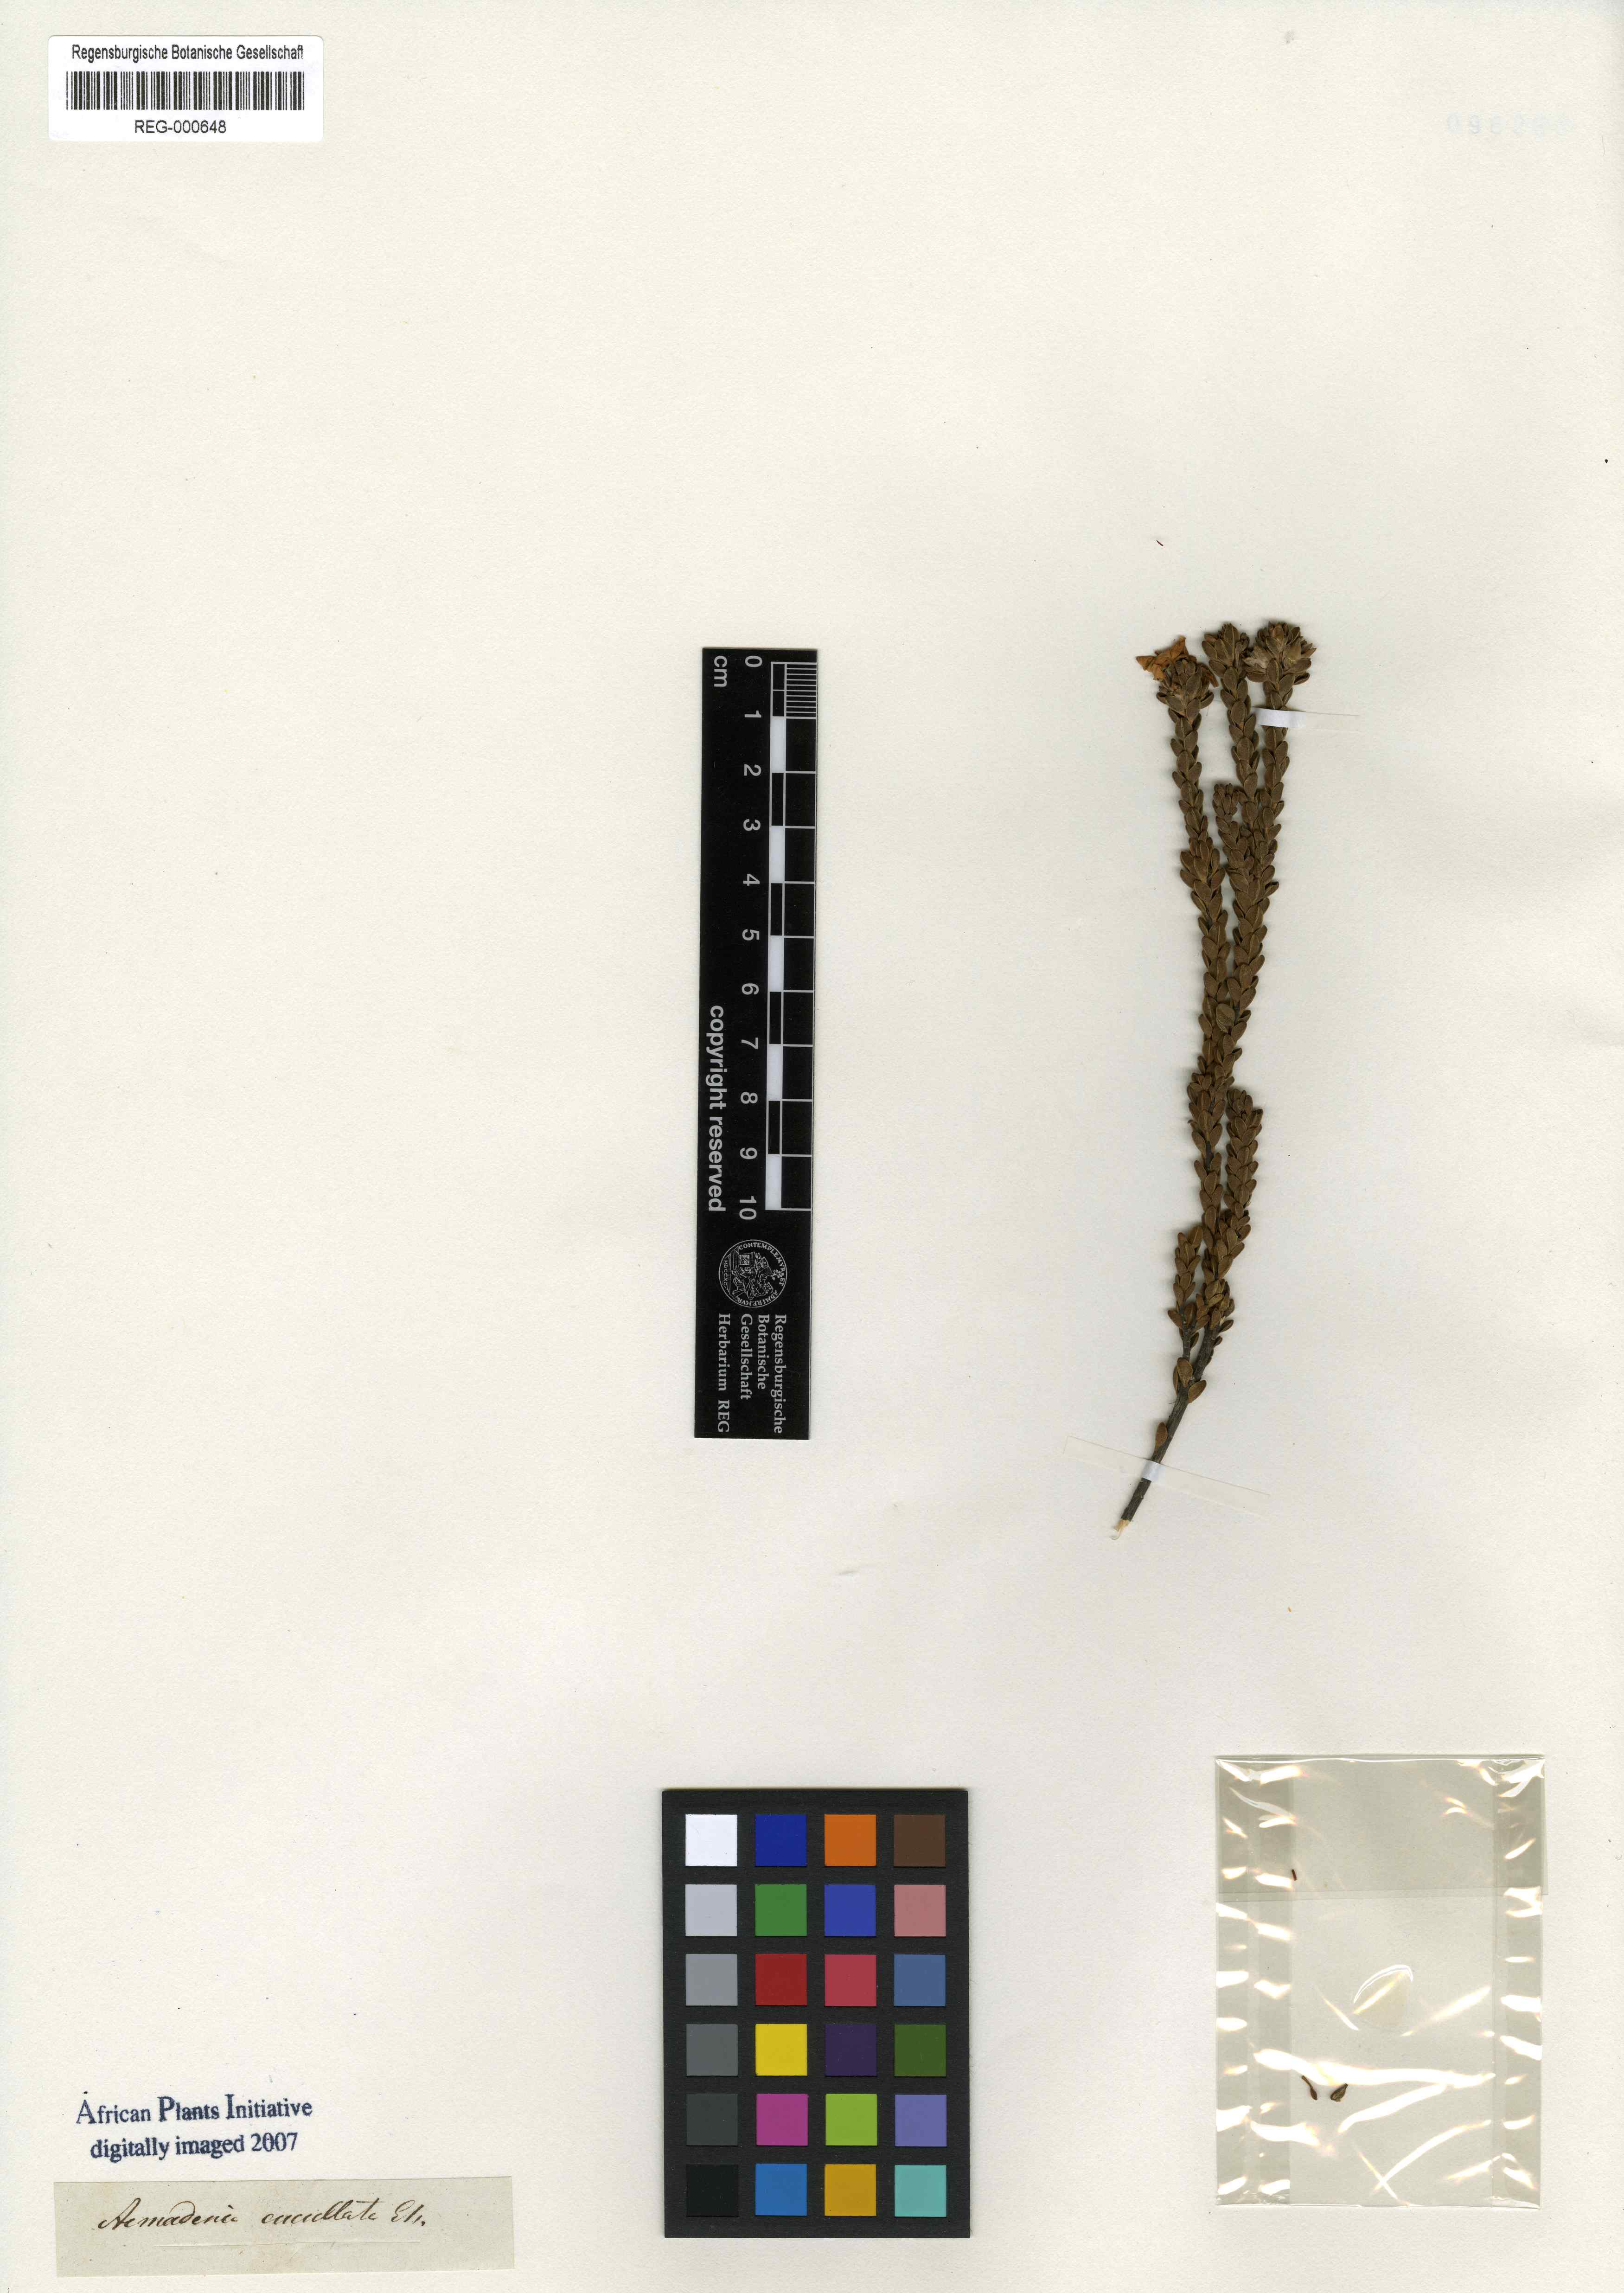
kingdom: Plantae
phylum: Tracheophyta
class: Magnoliopsida
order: Sapindales
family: Rutaceae
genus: Acmadenia
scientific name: Acmadenia mundiana
